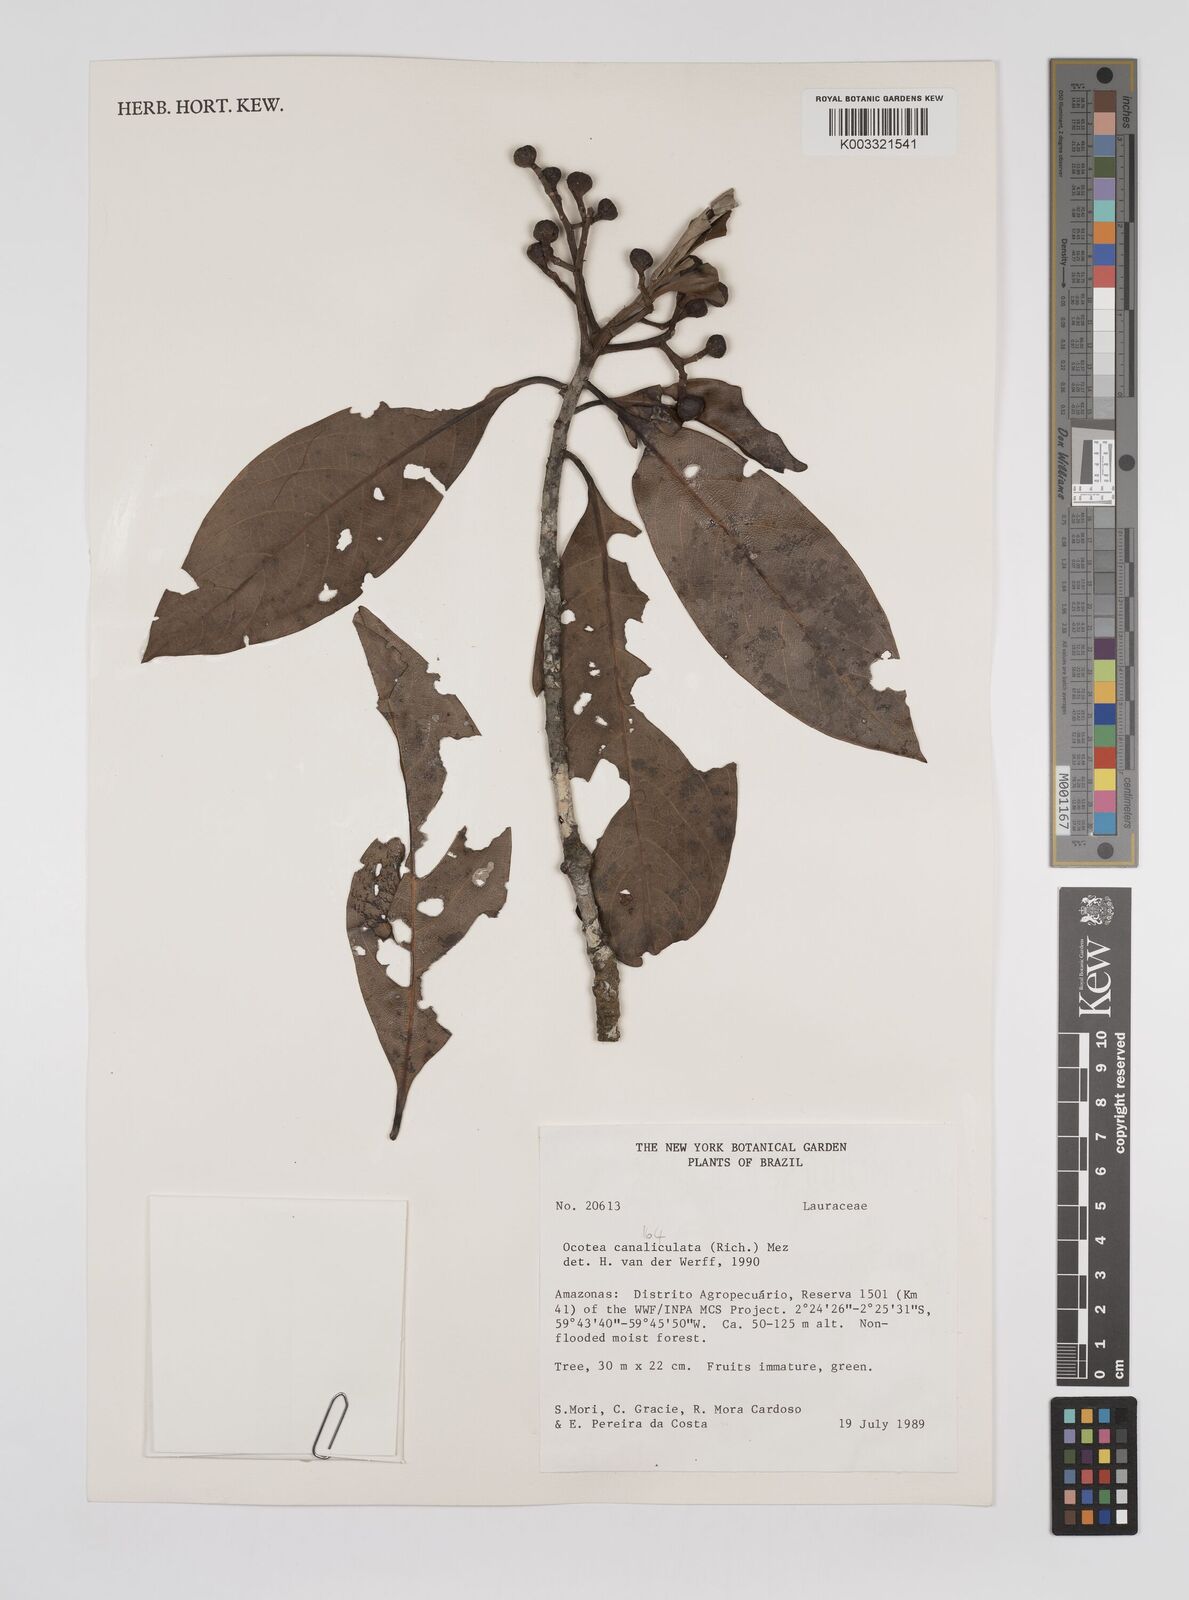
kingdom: Plantae
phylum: Tracheophyta
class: Magnoliopsida
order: Laurales
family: Lauraceae
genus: Ocotea
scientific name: Ocotea canaliculata
